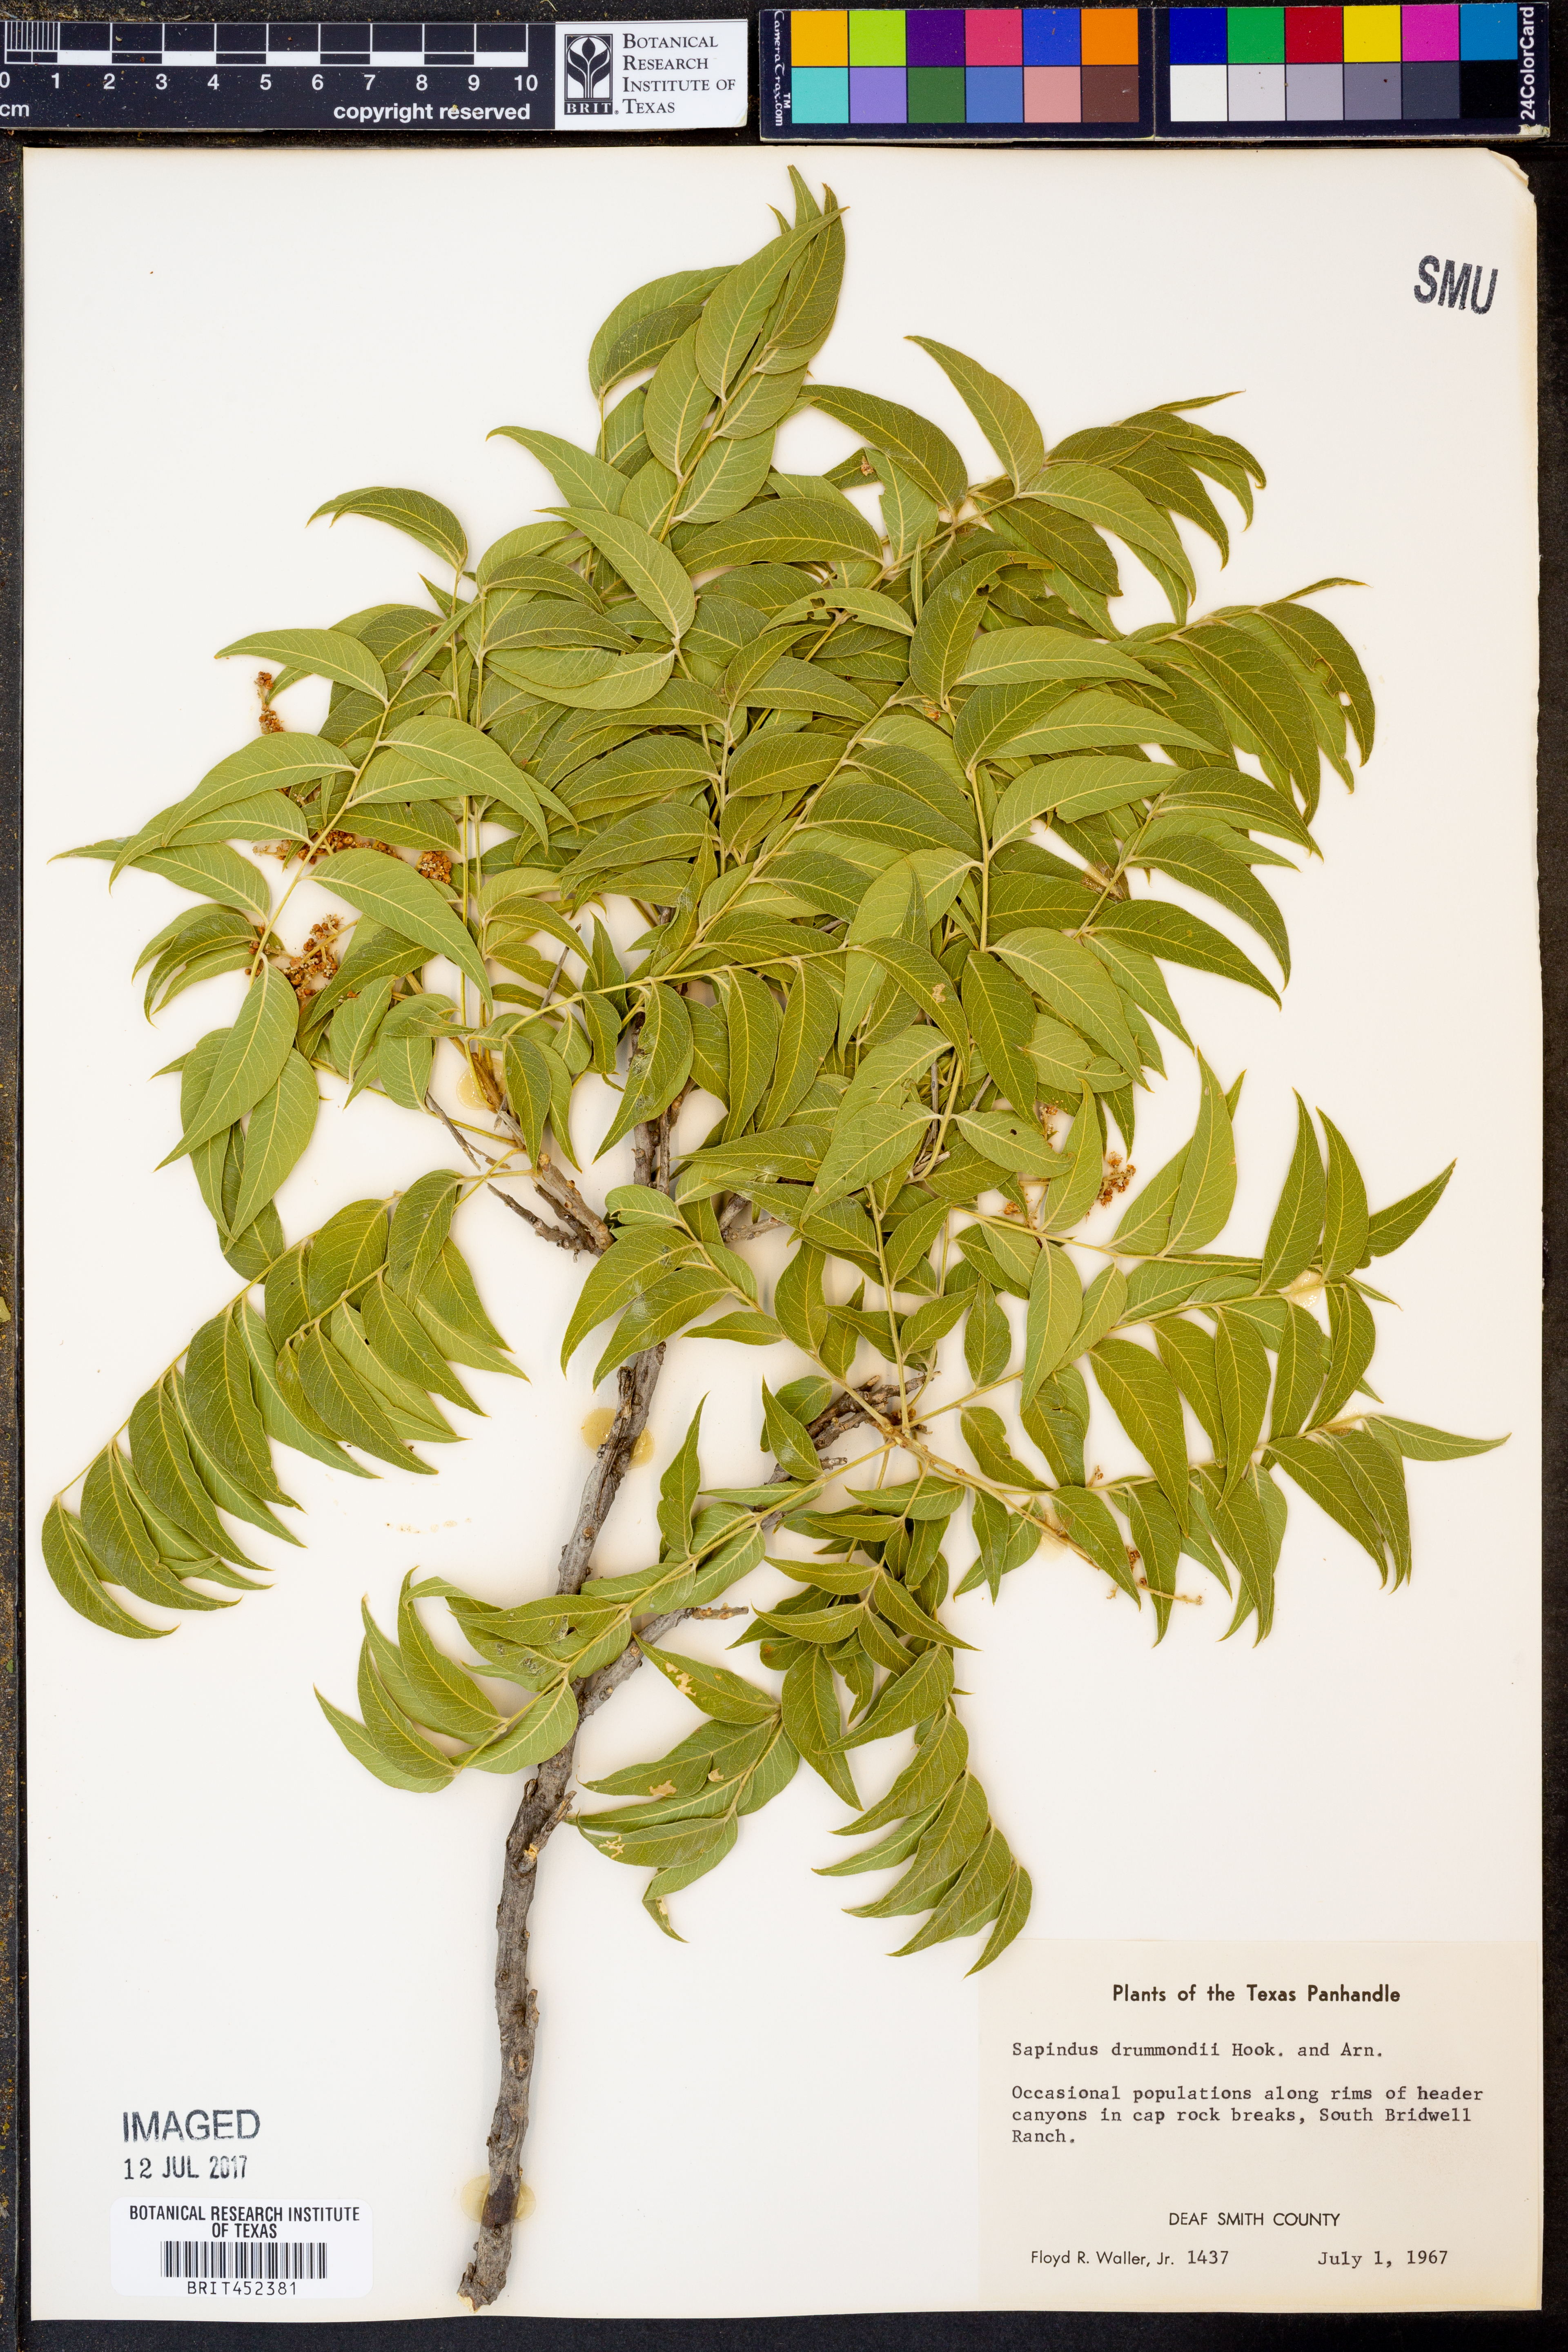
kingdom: Plantae
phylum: Tracheophyta
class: Magnoliopsida
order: Sapindales
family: Sapindaceae
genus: Sapindus
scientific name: Sapindus drummondii
